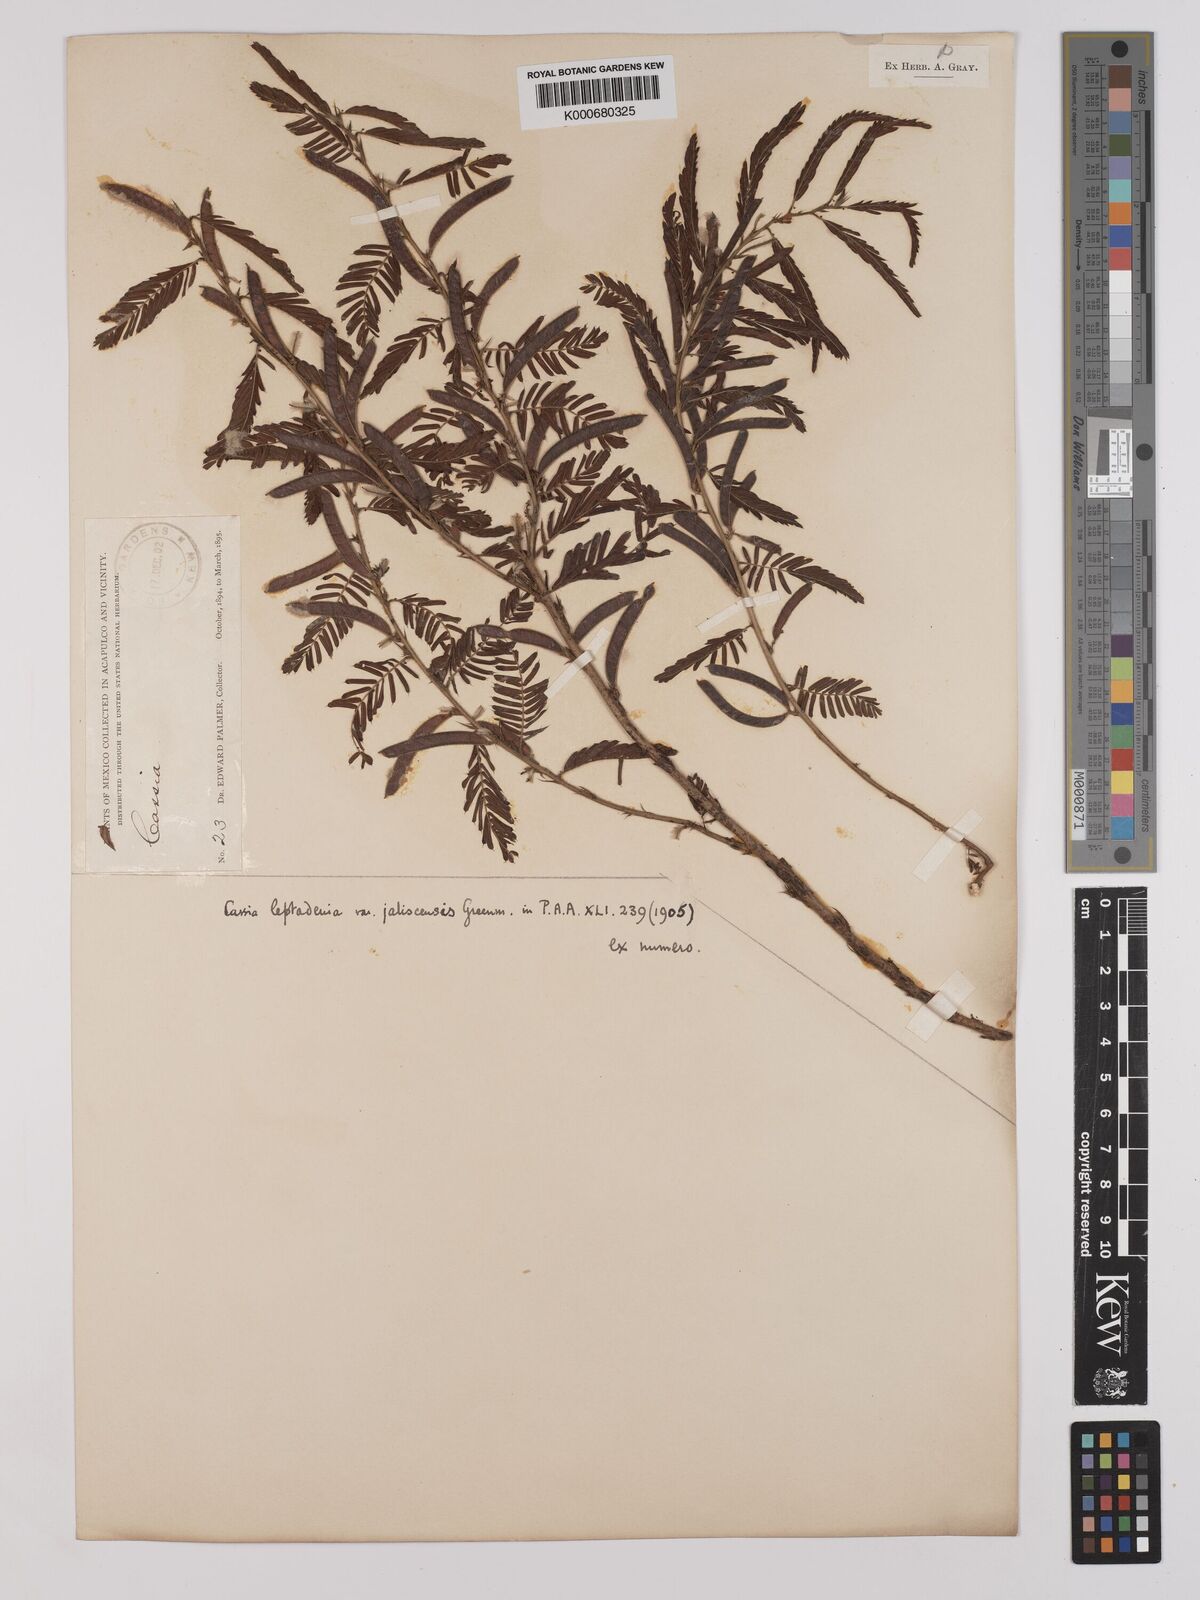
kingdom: Plantae
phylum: Tracheophyta
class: Magnoliopsida
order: Fabales
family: Fabaceae
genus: Chamaecrista
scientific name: Chamaecrista nictitans
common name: Sensitive cassia
